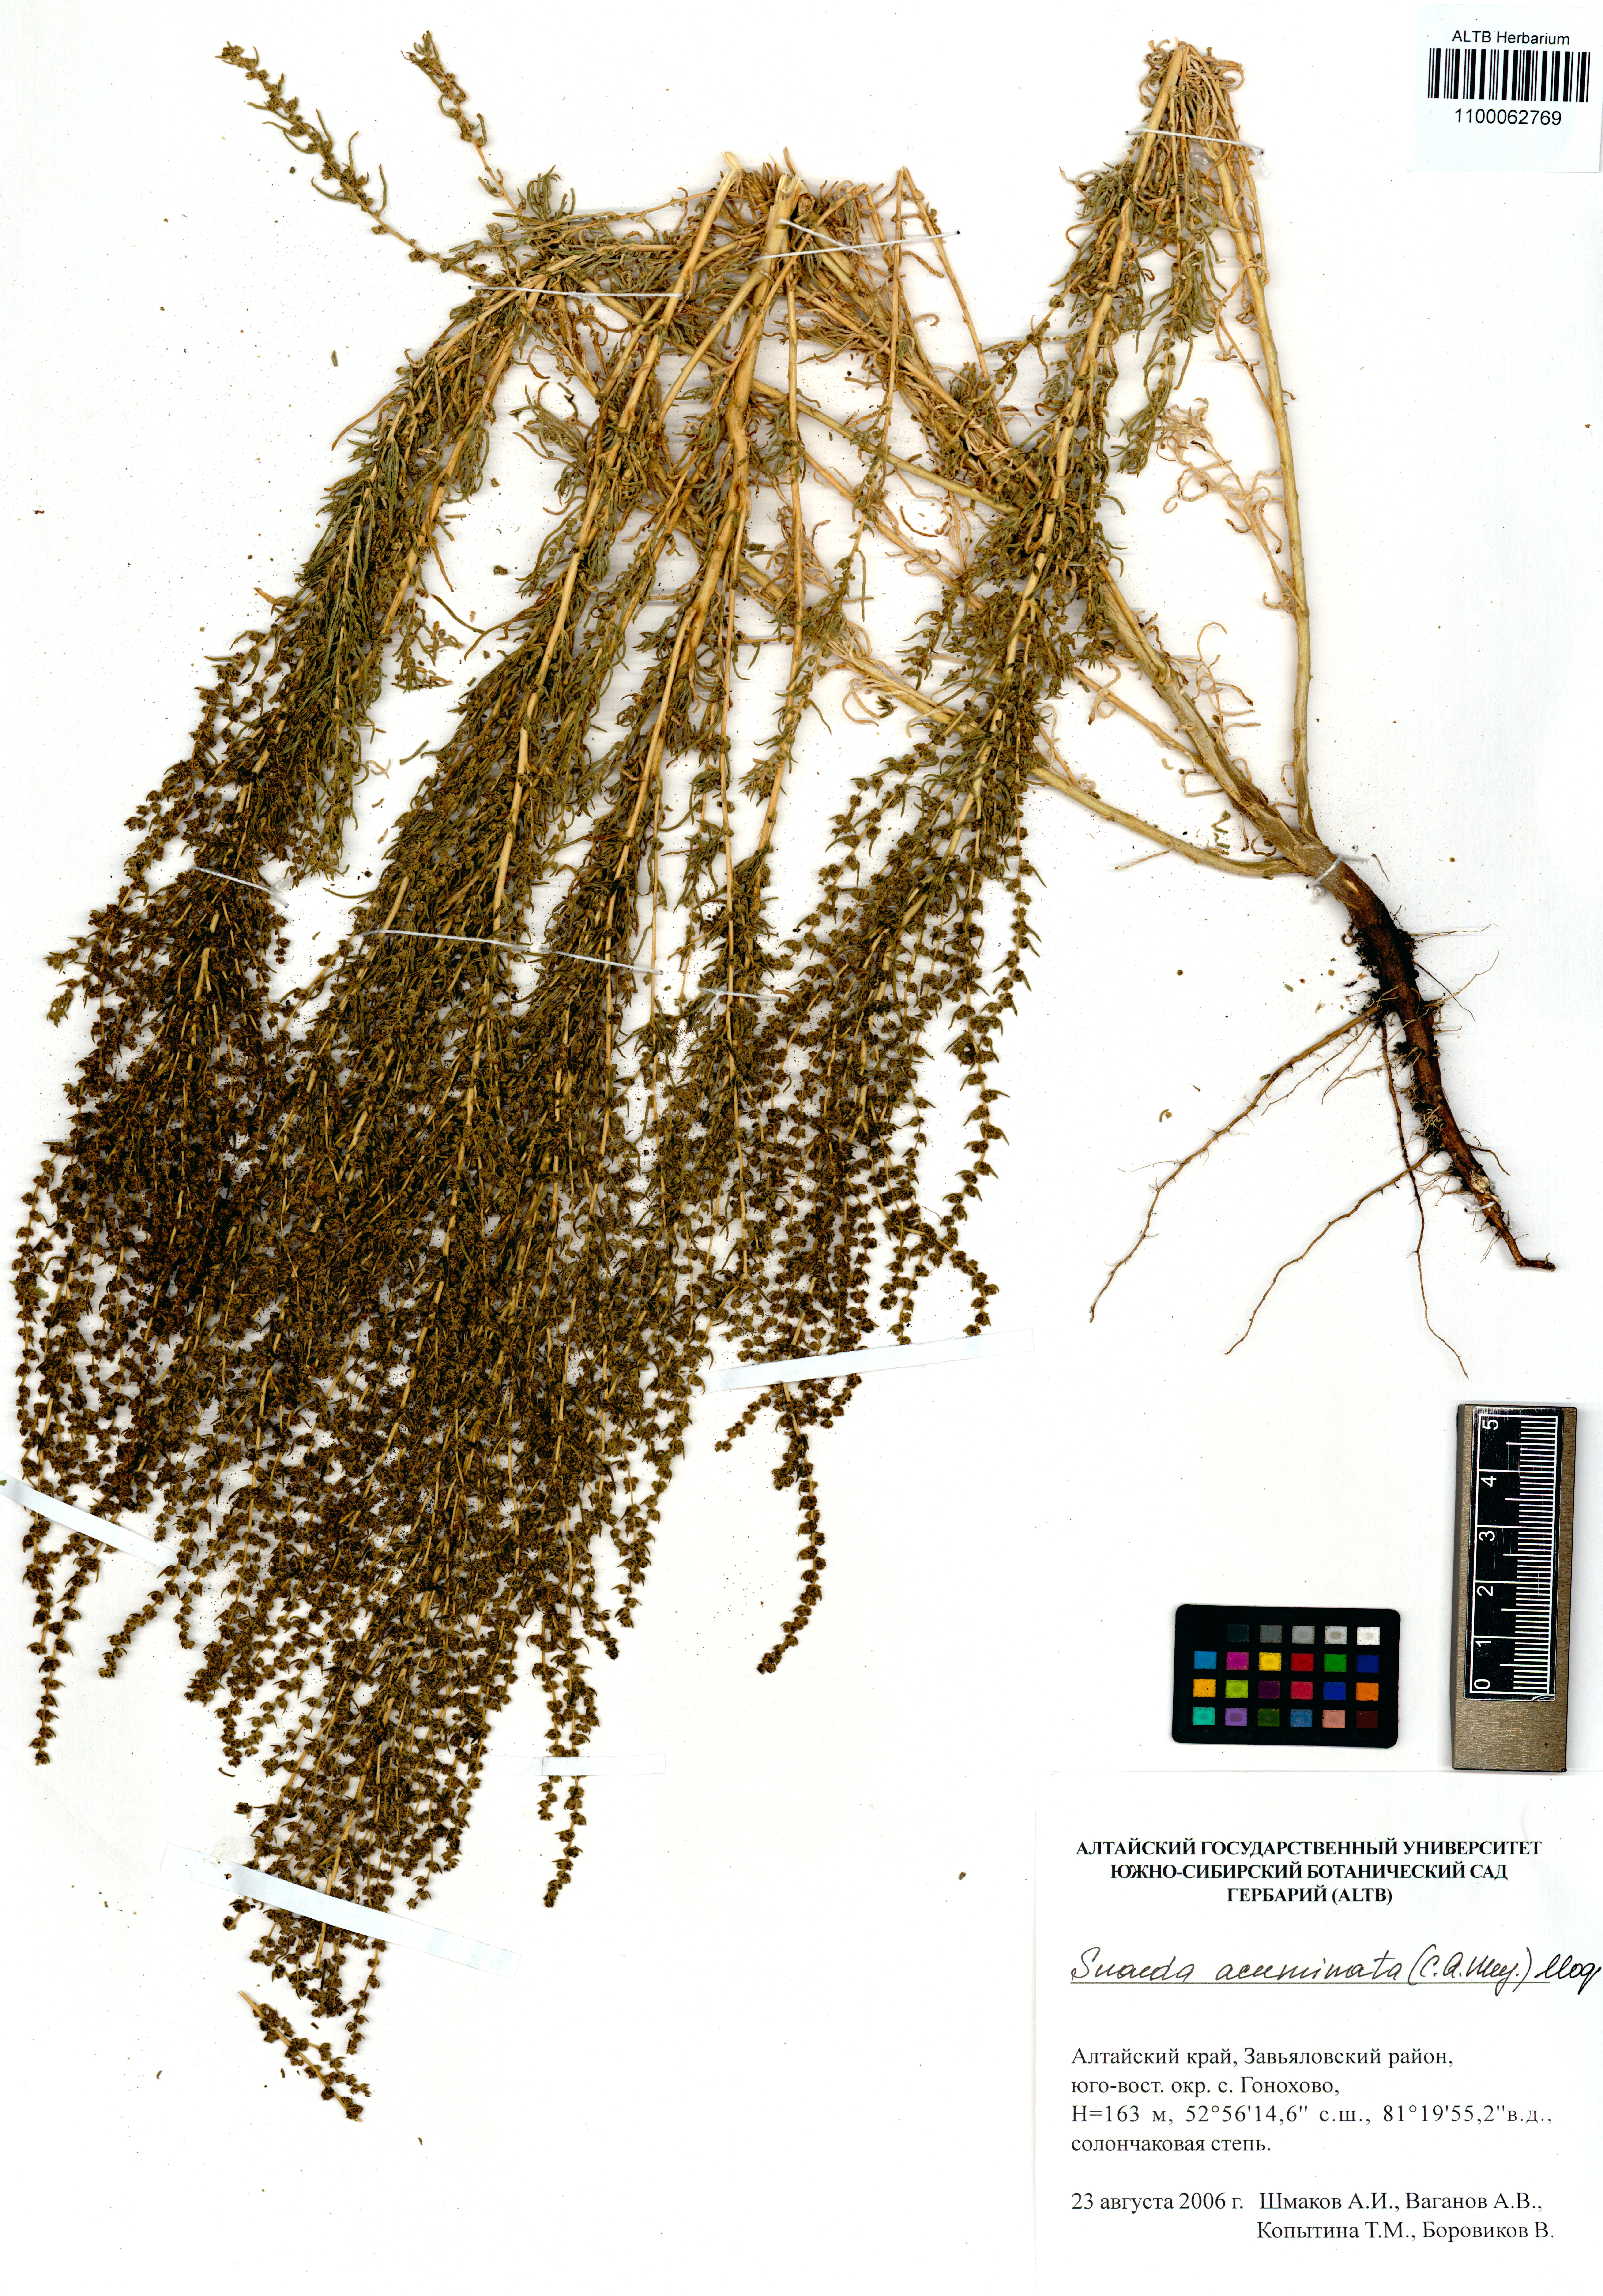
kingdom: Plantae
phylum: Tracheophyta
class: Magnoliopsida
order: Caryophyllales
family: Amaranthaceae
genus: Suaeda
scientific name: Suaeda acuminata
